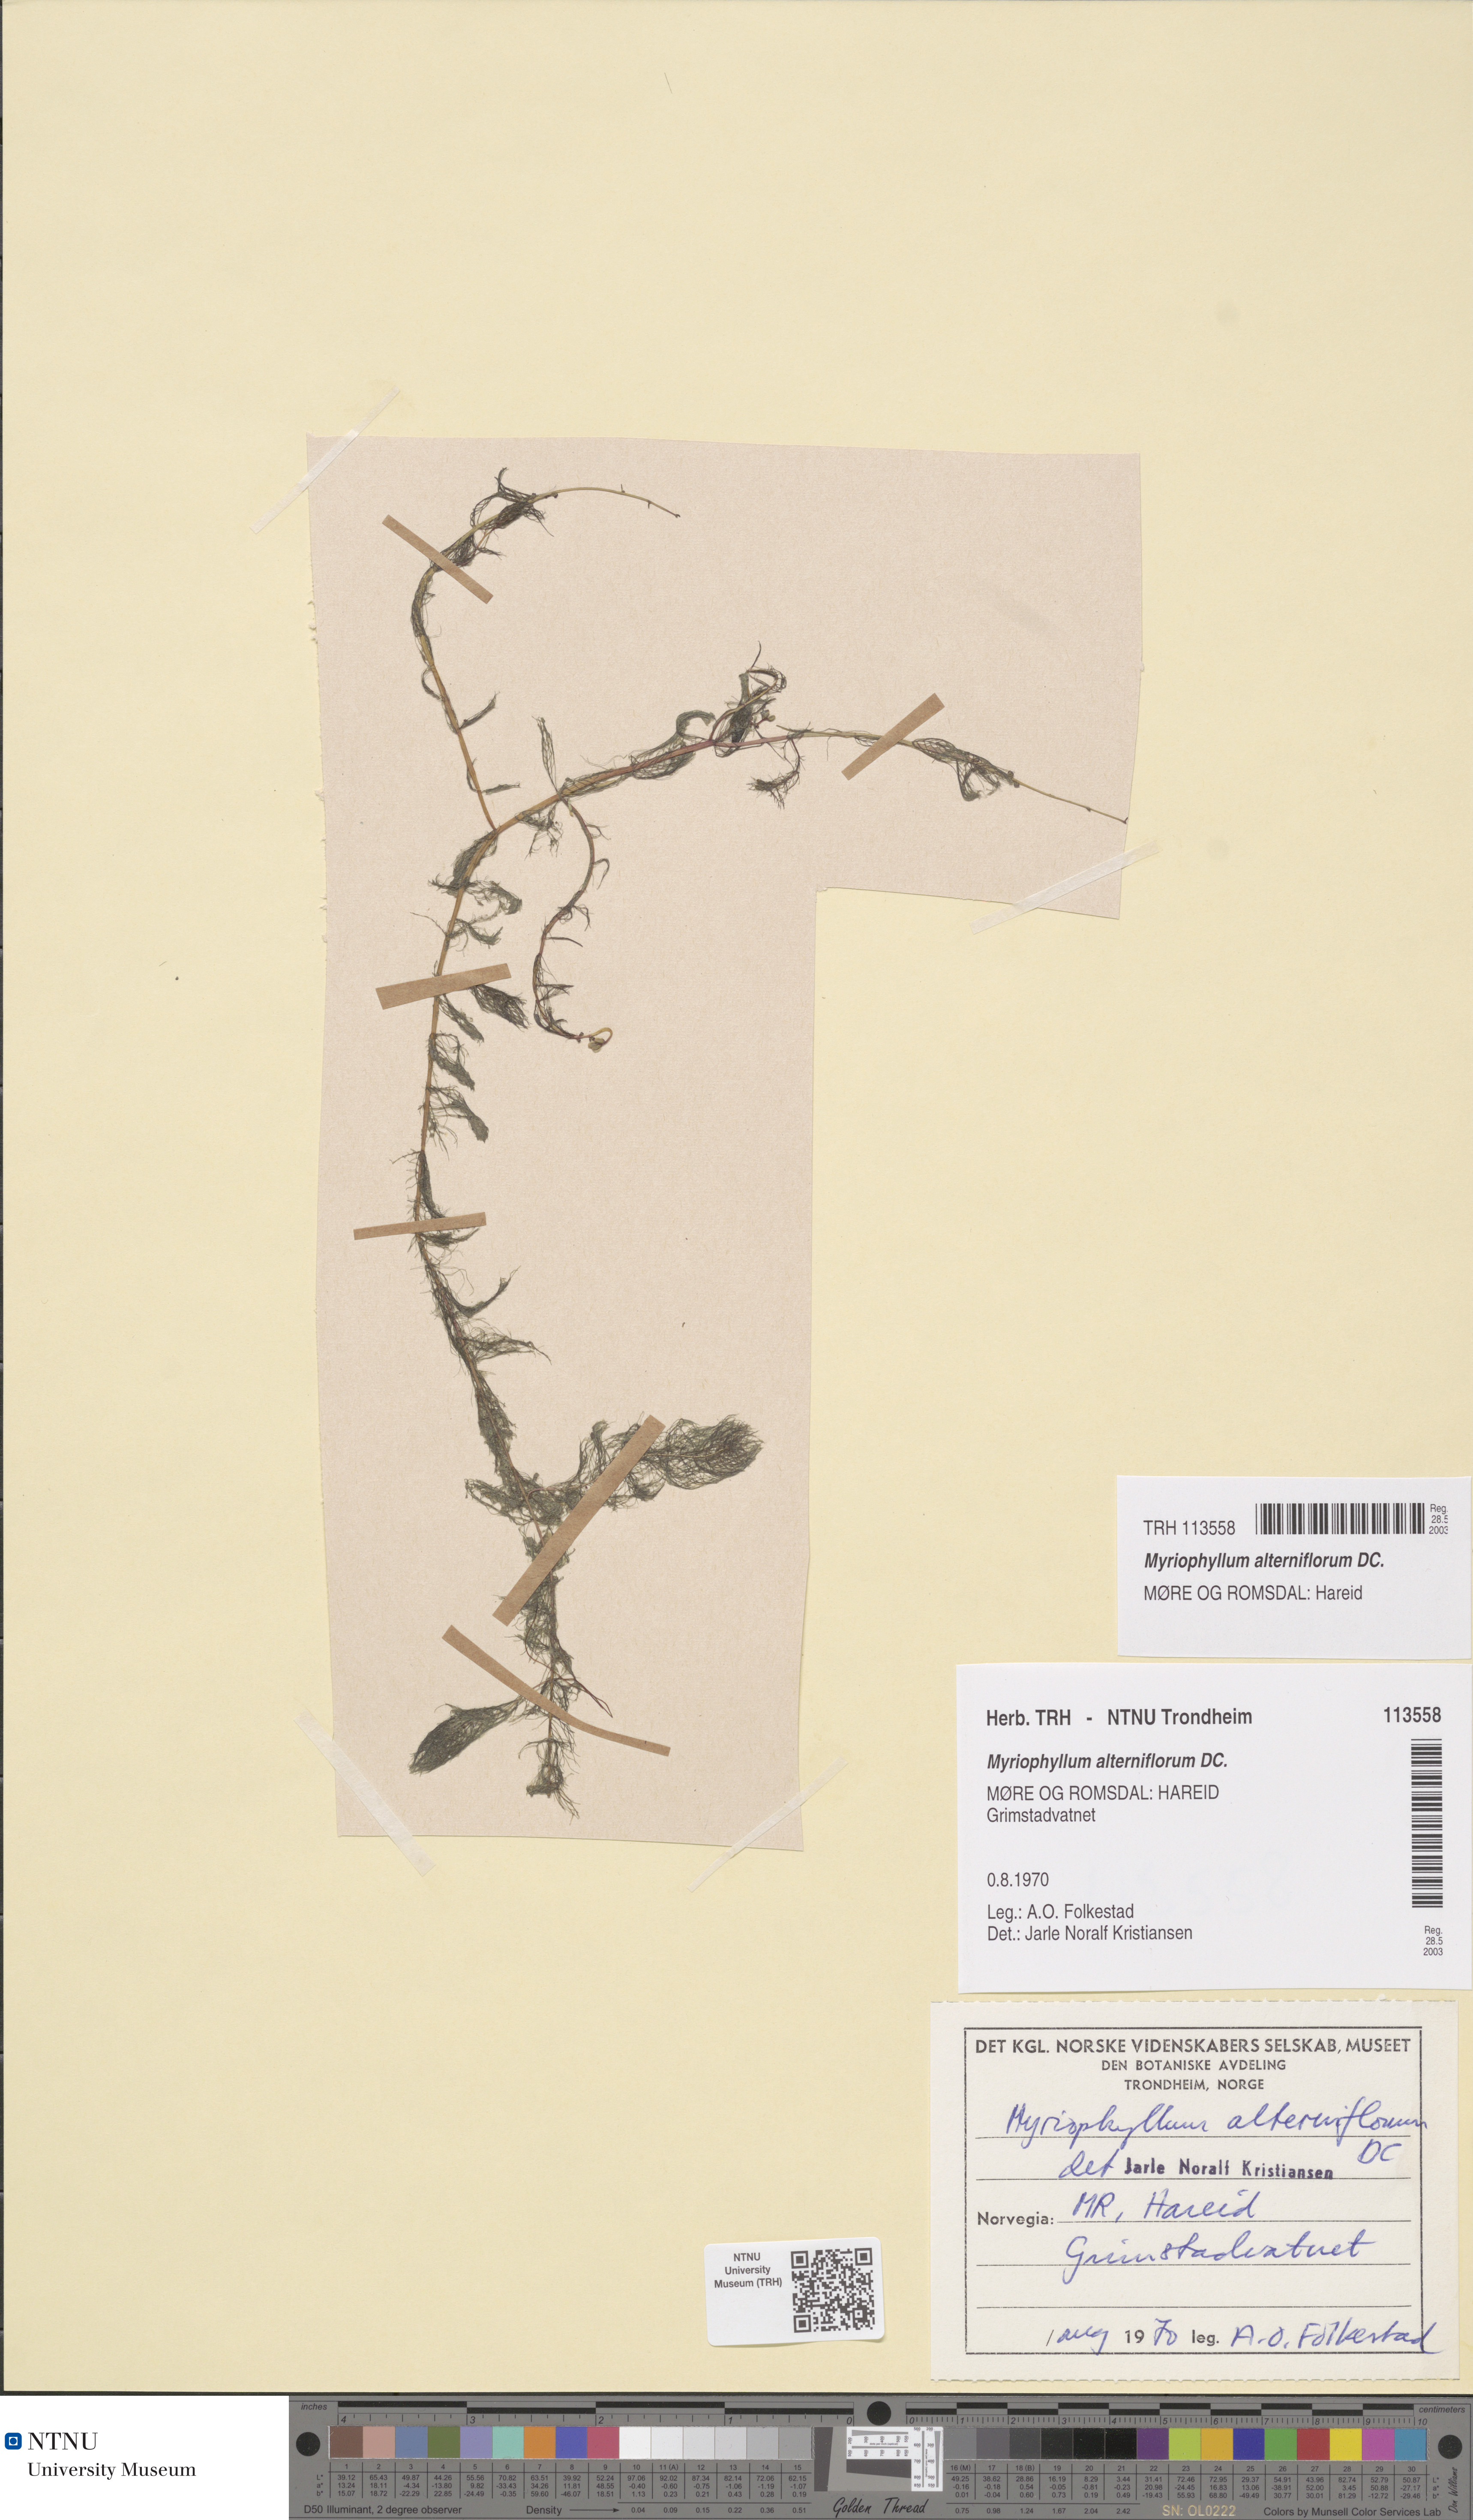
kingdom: Plantae
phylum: Tracheophyta
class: Magnoliopsida
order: Saxifragales
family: Haloragaceae
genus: Myriophyllum
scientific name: Myriophyllum alterniflorum
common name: Alternate water-milfoil
